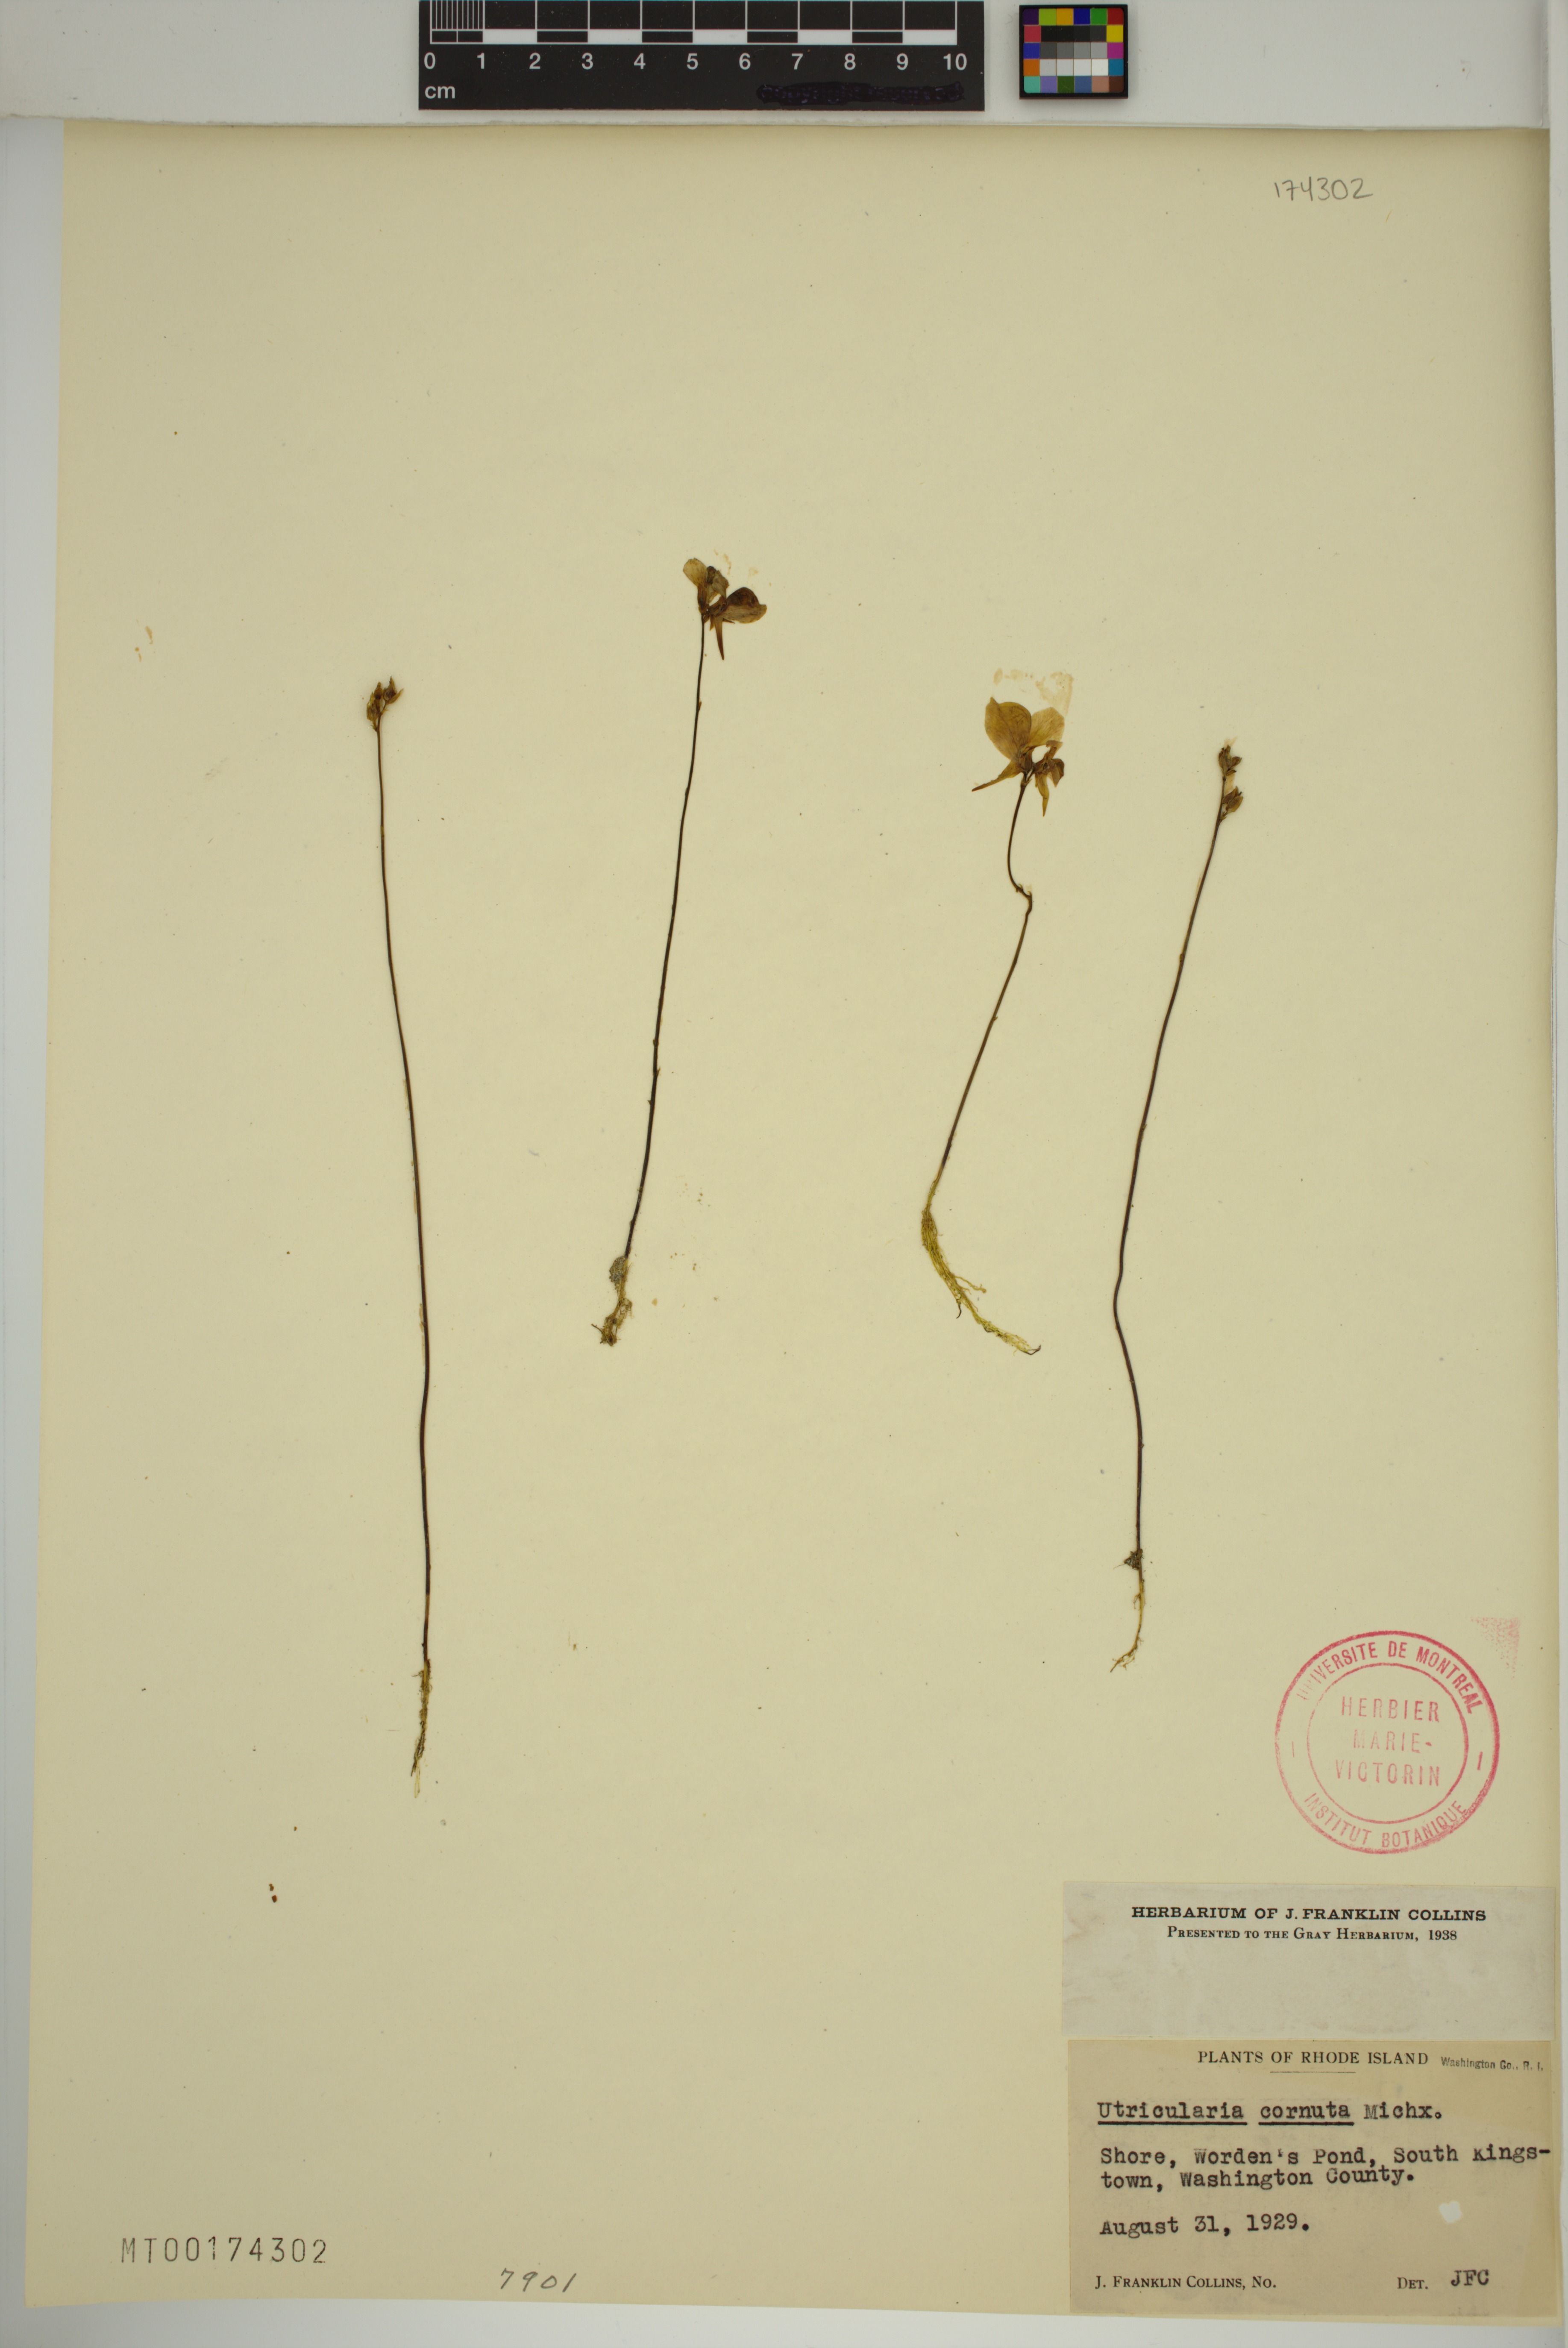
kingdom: Plantae
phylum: Tracheophyta
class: Magnoliopsida
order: Lamiales
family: Lentibulariaceae
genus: Utricularia
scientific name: Utricularia cornuta
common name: Horned bladderwort
